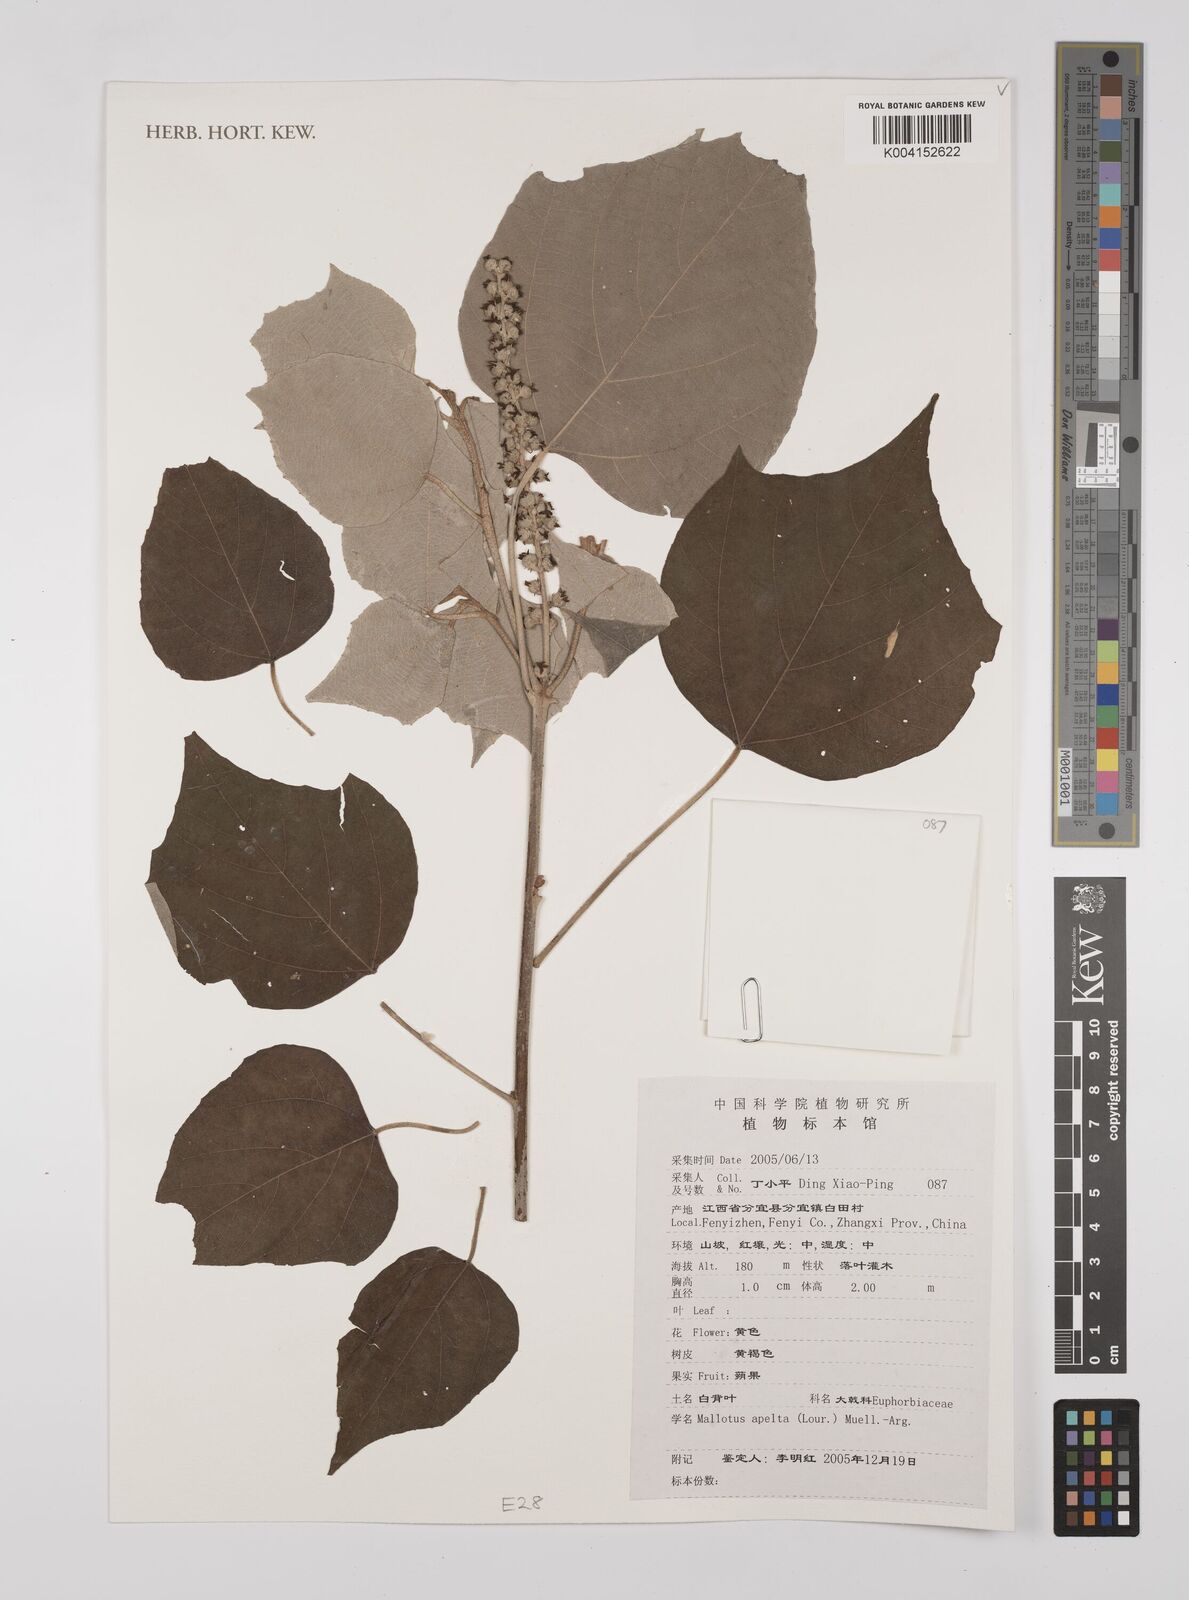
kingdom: Plantae
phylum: Tracheophyta
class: Magnoliopsida
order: Malpighiales
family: Euphorbiaceae
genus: Mallotus
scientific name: Mallotus apelta
